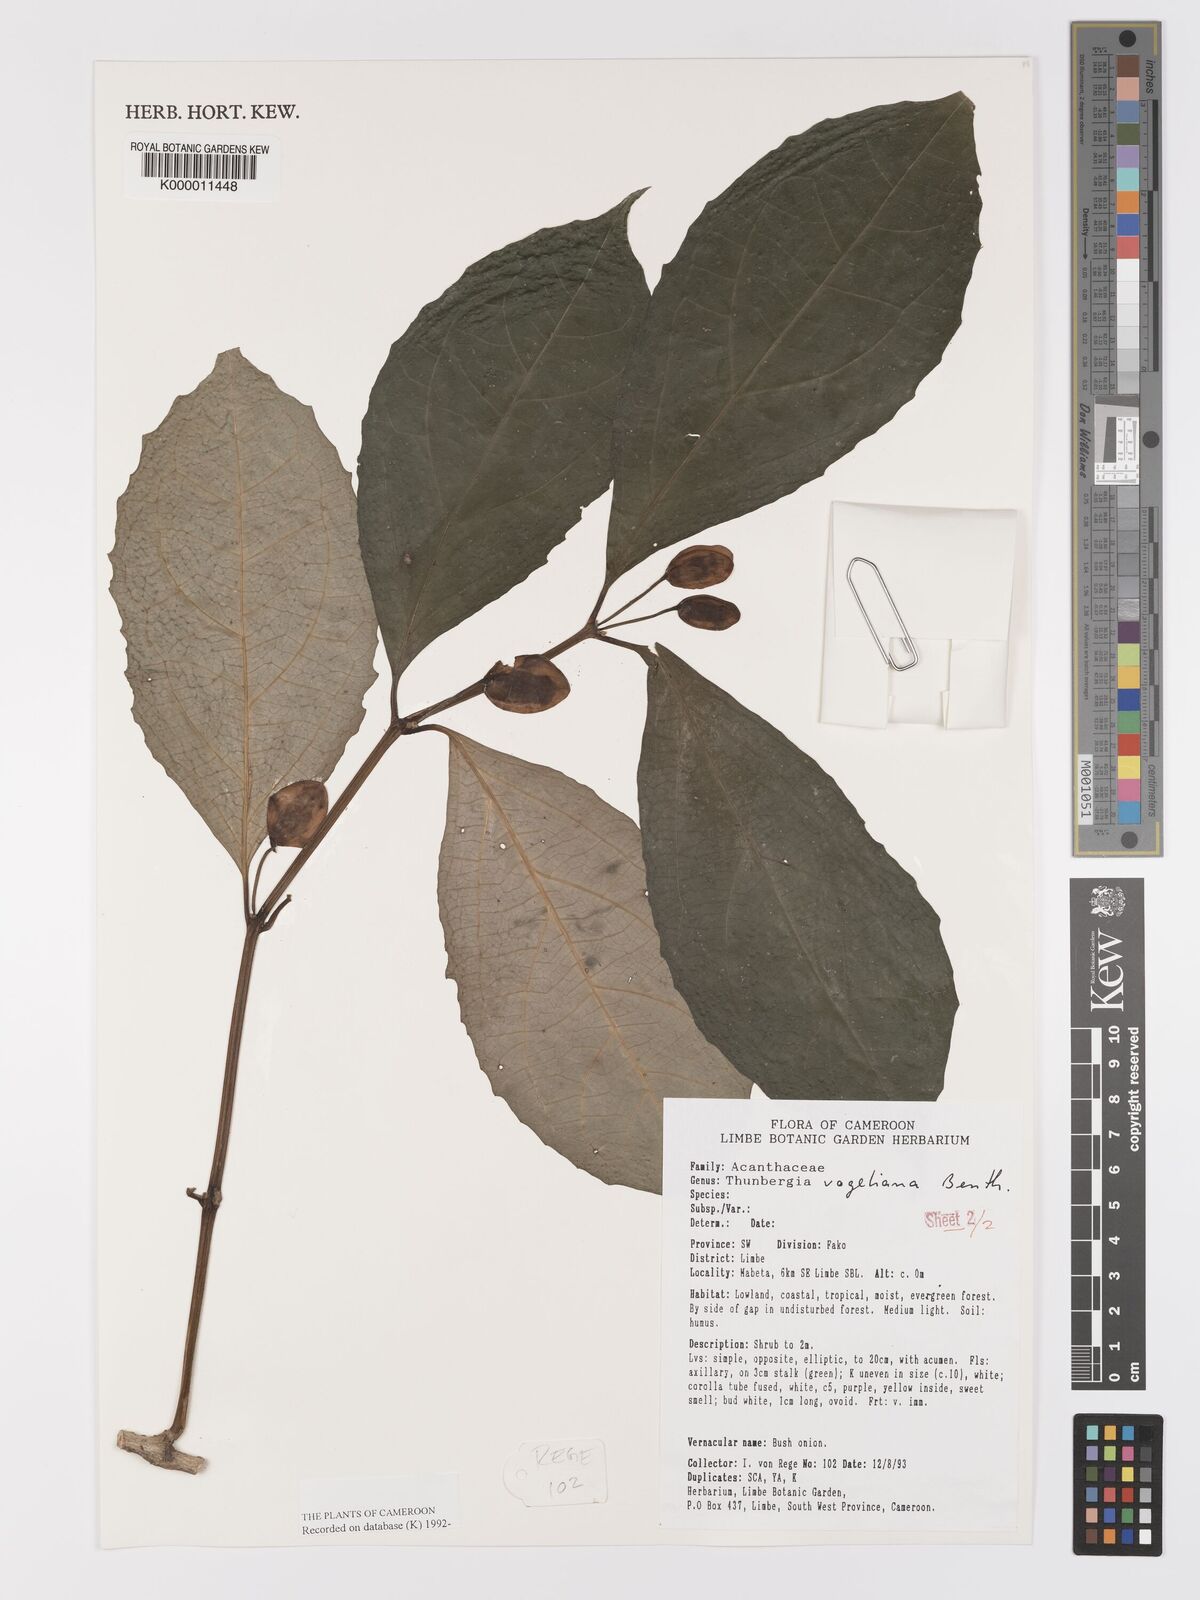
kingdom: Plantae
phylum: Tracheophyta
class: Magnoliopsida
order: Lamiales
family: Acanthaceae
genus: Thunbergia
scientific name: Thunbergia vogeliana
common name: Acanthaceae
